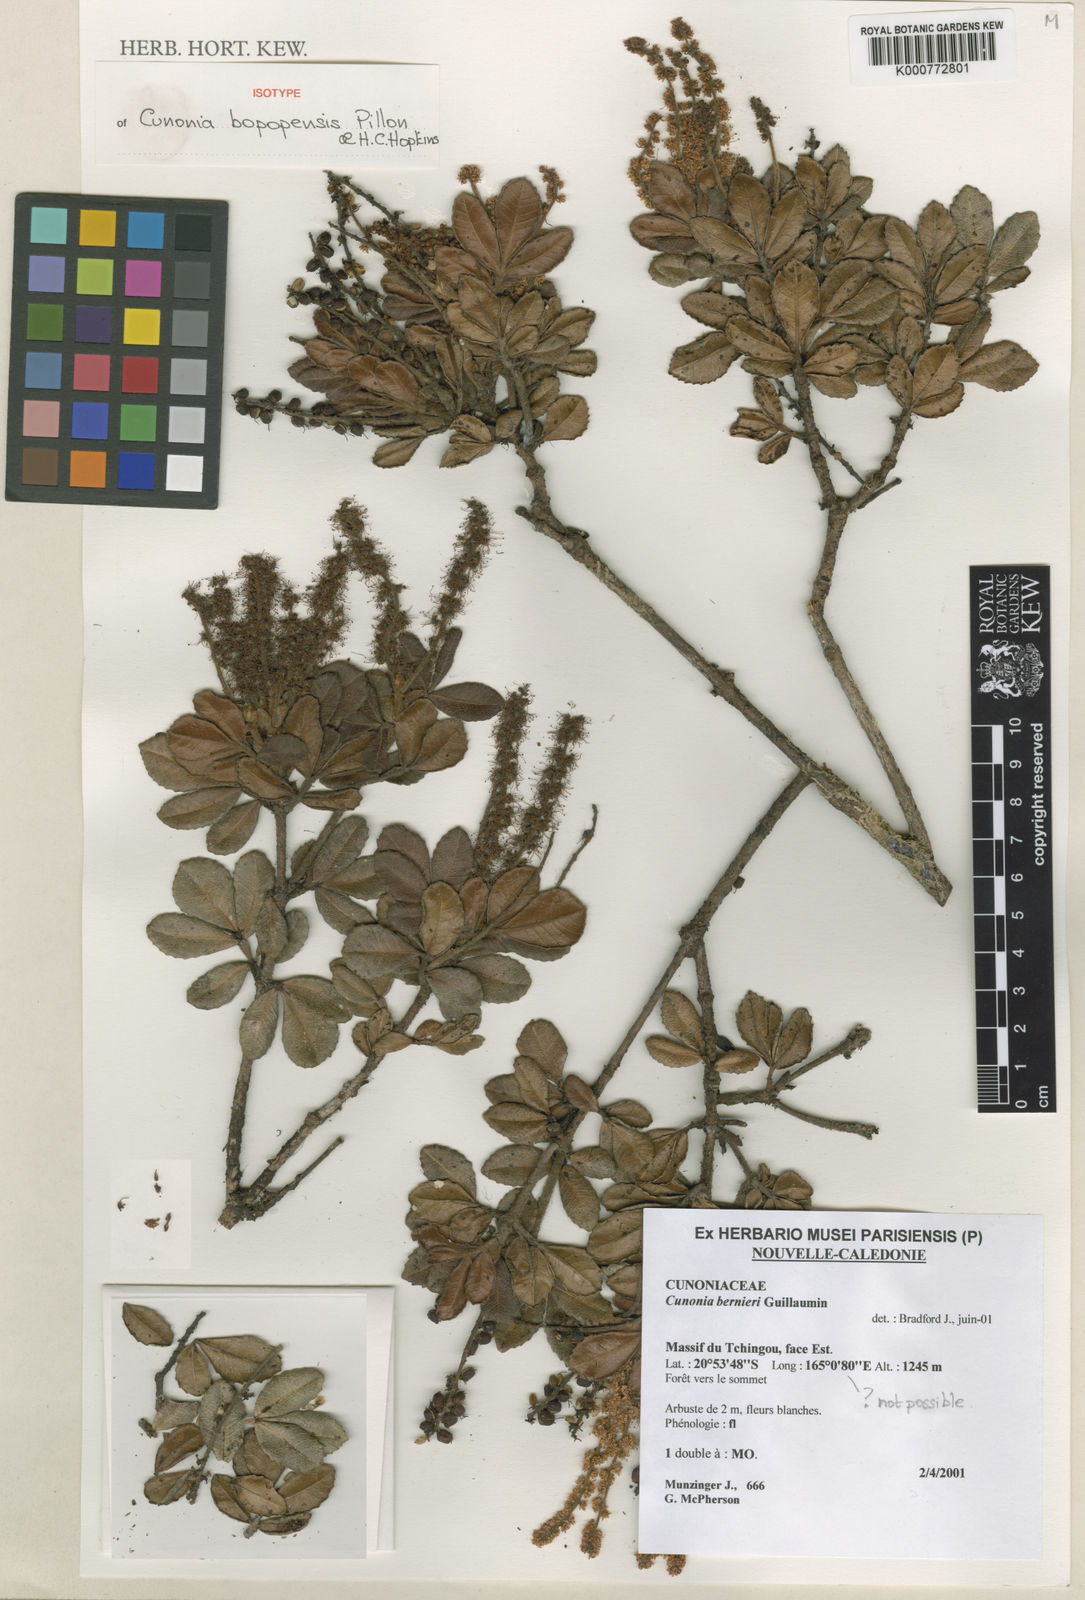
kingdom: Plantae
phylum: Tracheophyta
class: Magnoliopsida
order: Oxalidales
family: Cunoniaceae
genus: Cunonia
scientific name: Cunonia bopopensis
